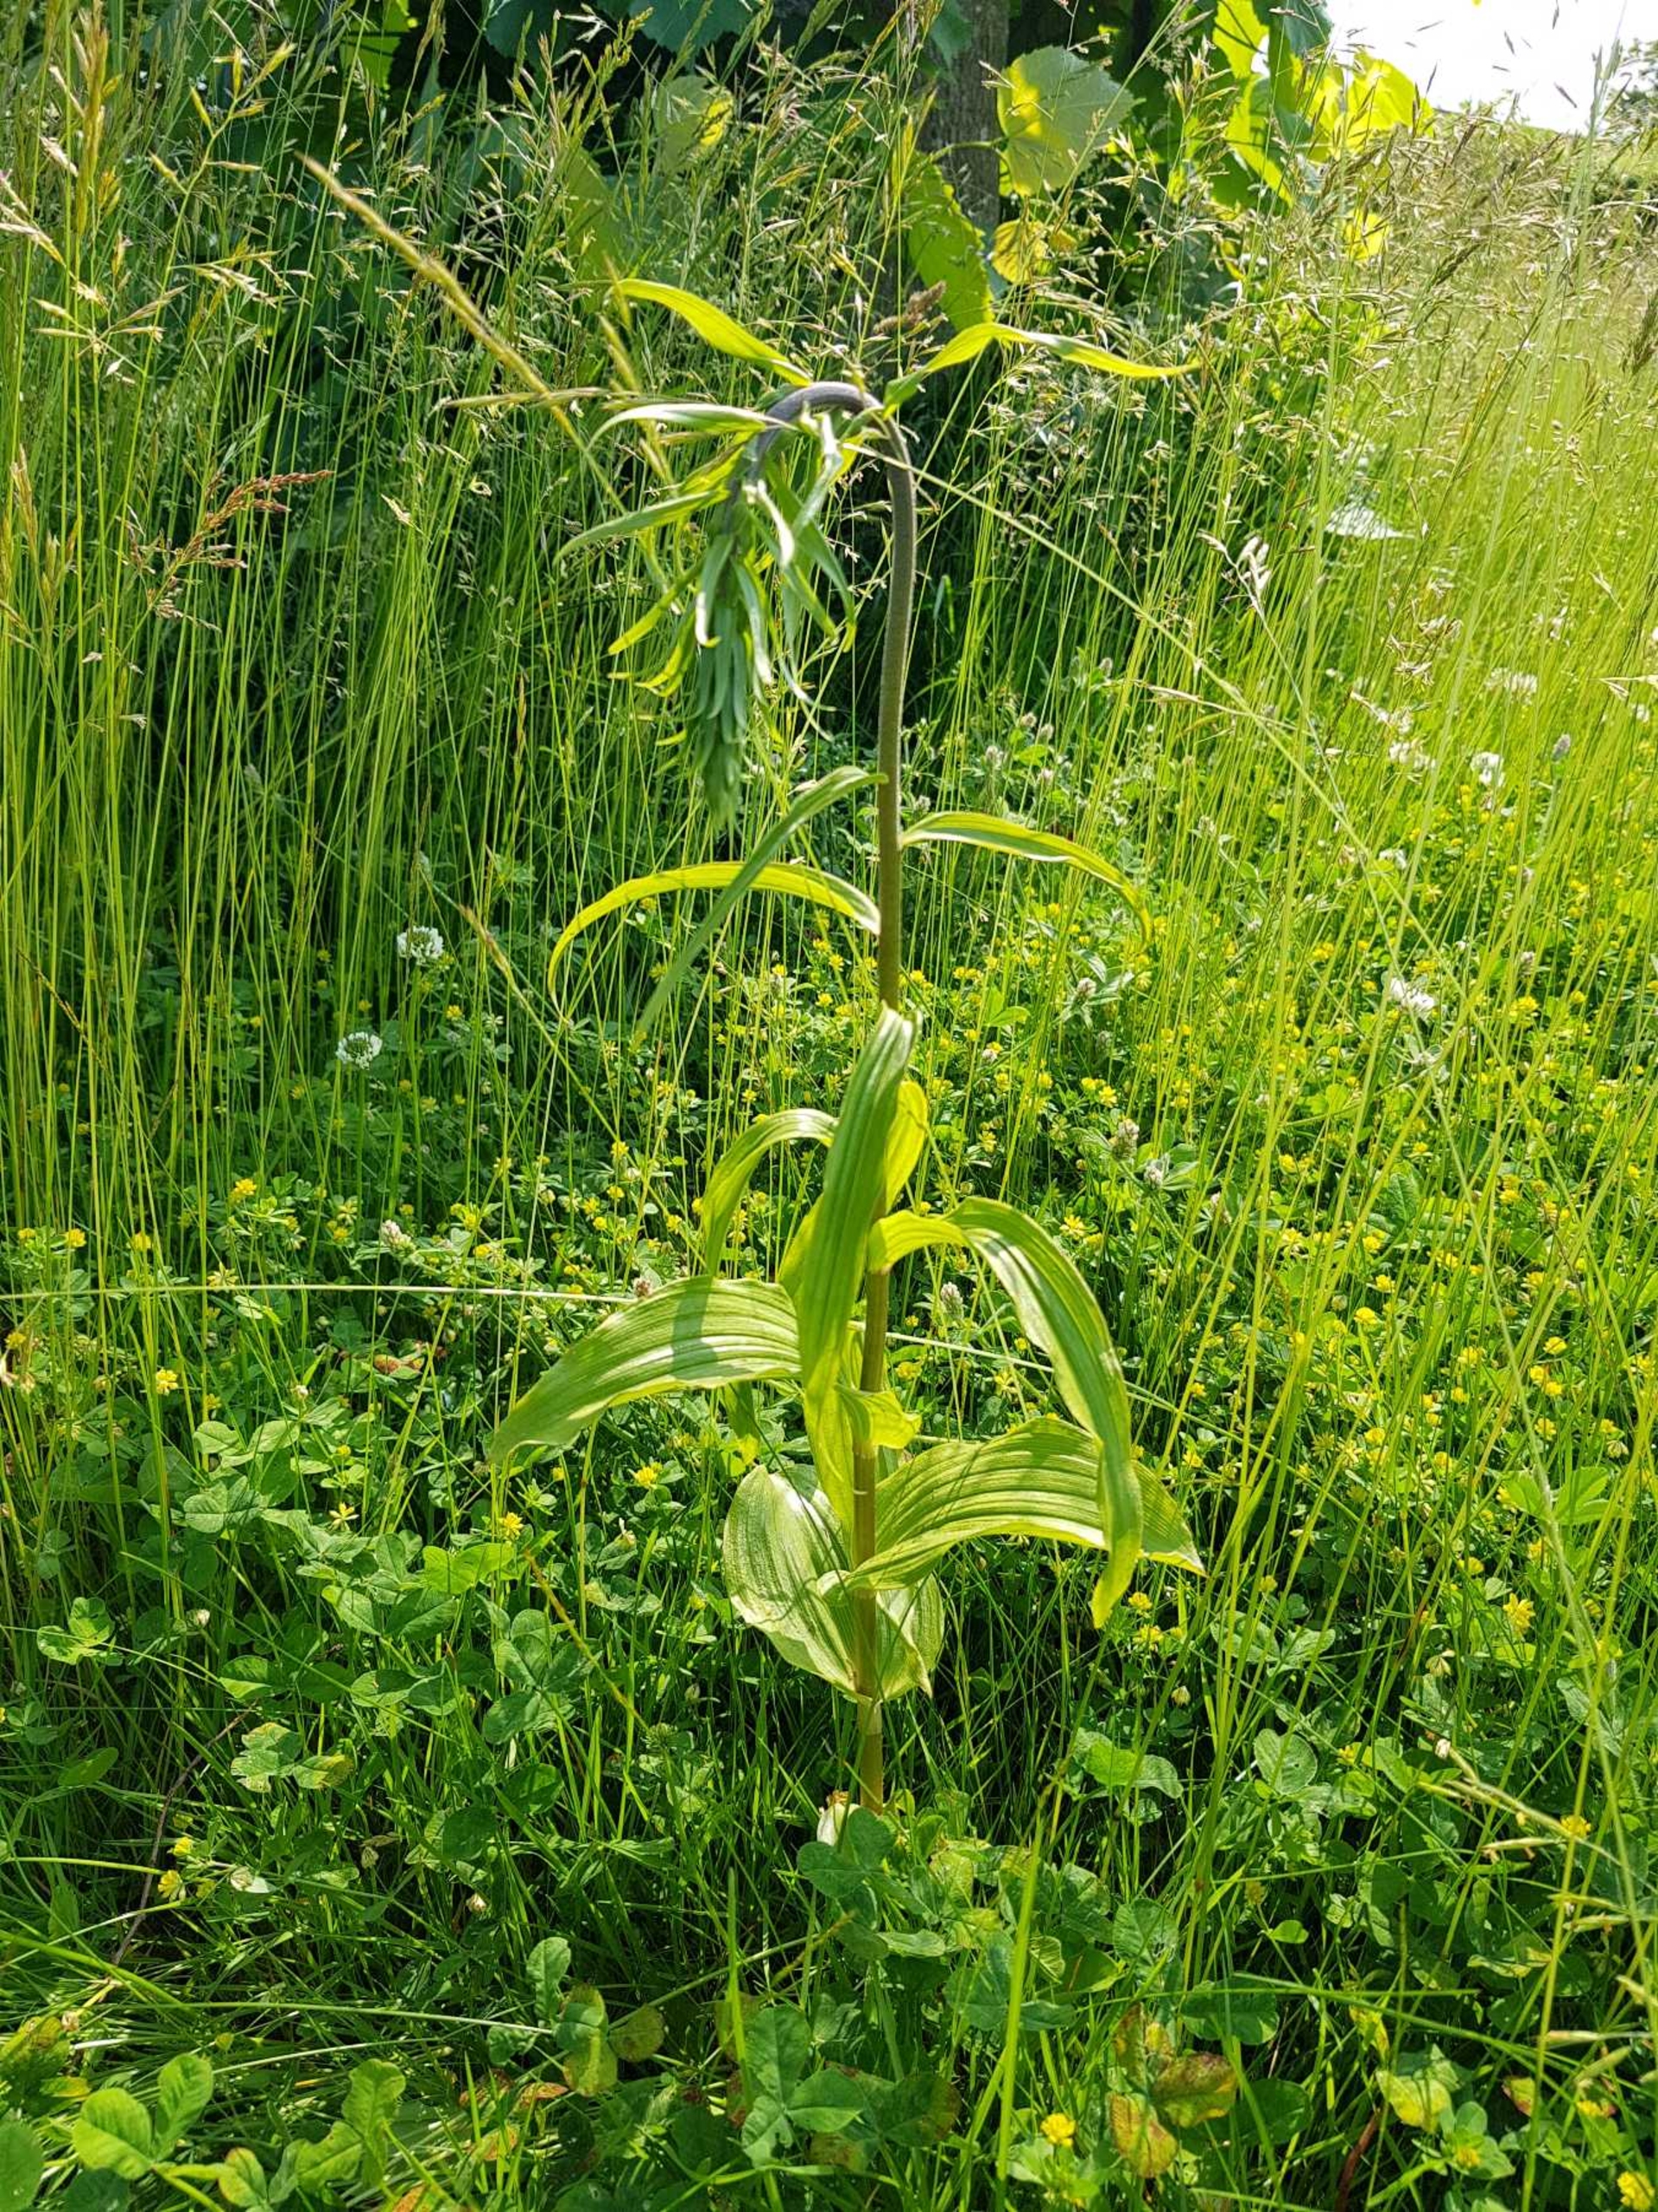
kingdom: Plantae
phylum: Tracheophyta
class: Liliopsida
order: Asparagales
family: Orchidaceae
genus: Epipactis
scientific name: Epipactis helleborine
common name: Skov-hullæbe
